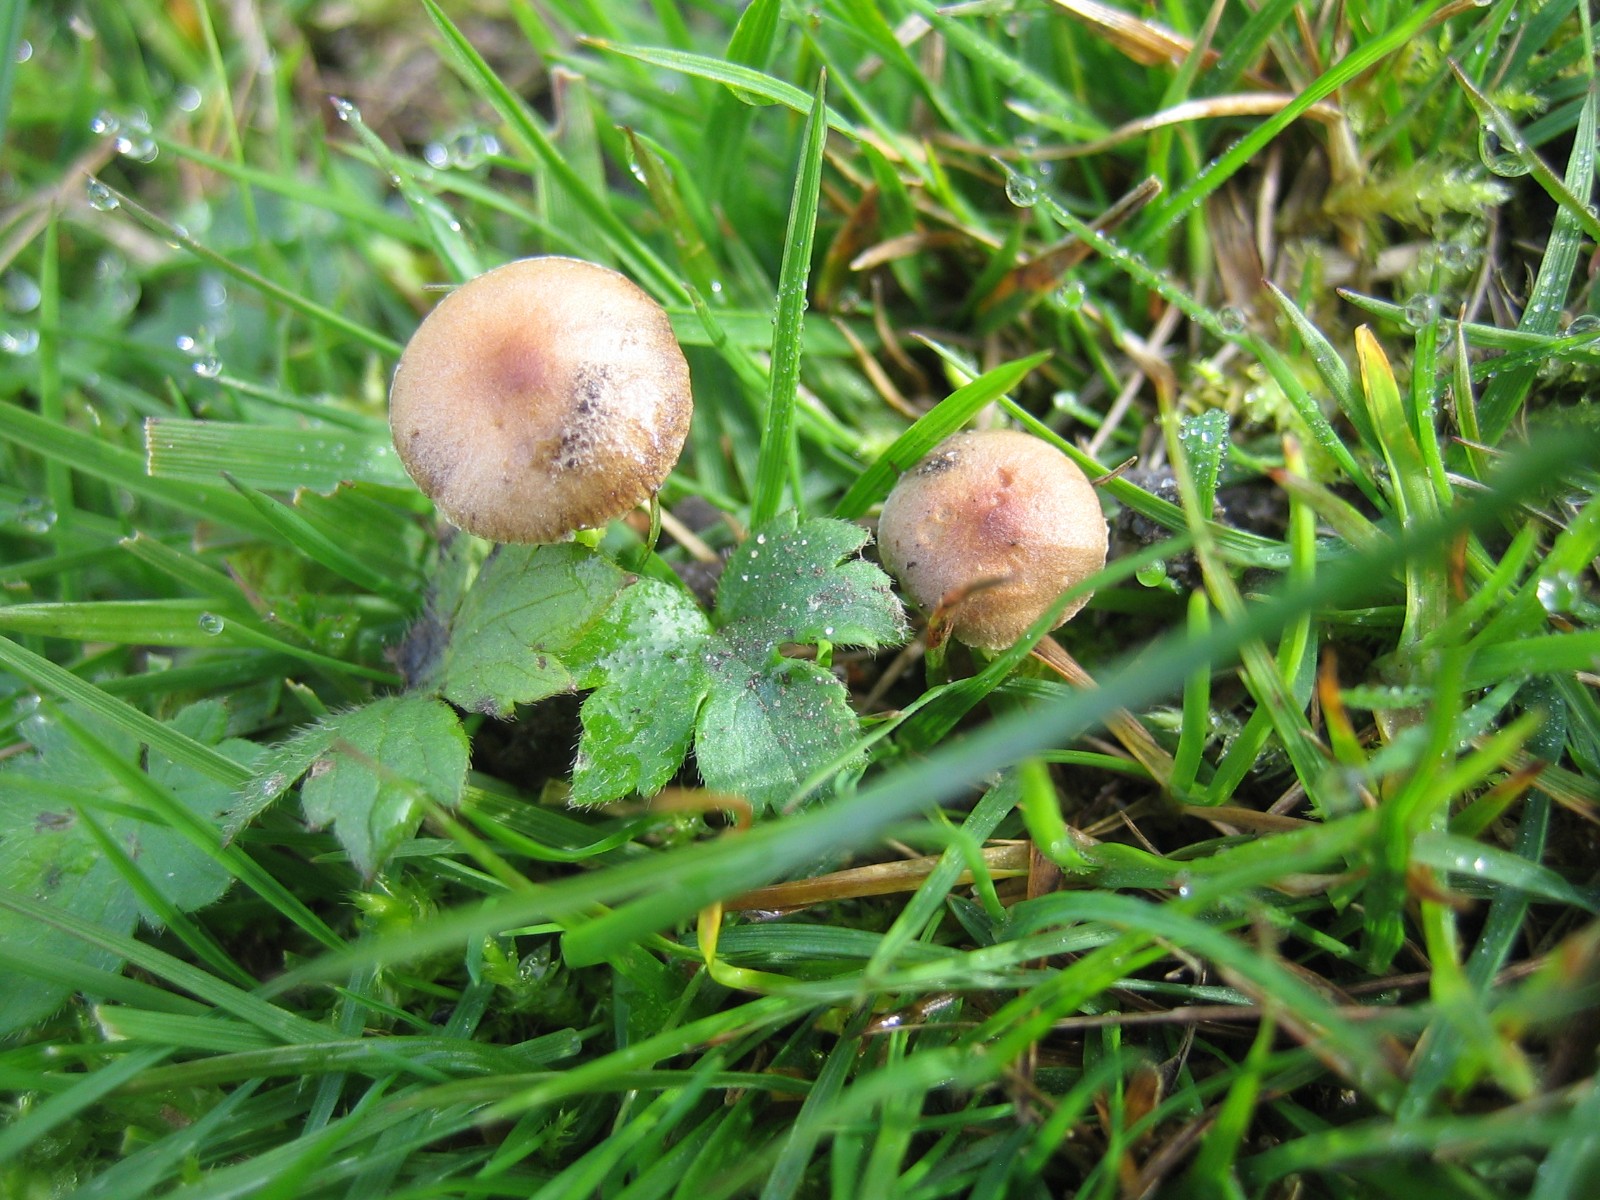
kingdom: Fungi
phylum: Basidiomycota
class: Agaricomycetes
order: Agaricales
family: Strophariaceae
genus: Deconica
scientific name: Deconica
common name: stråhat
